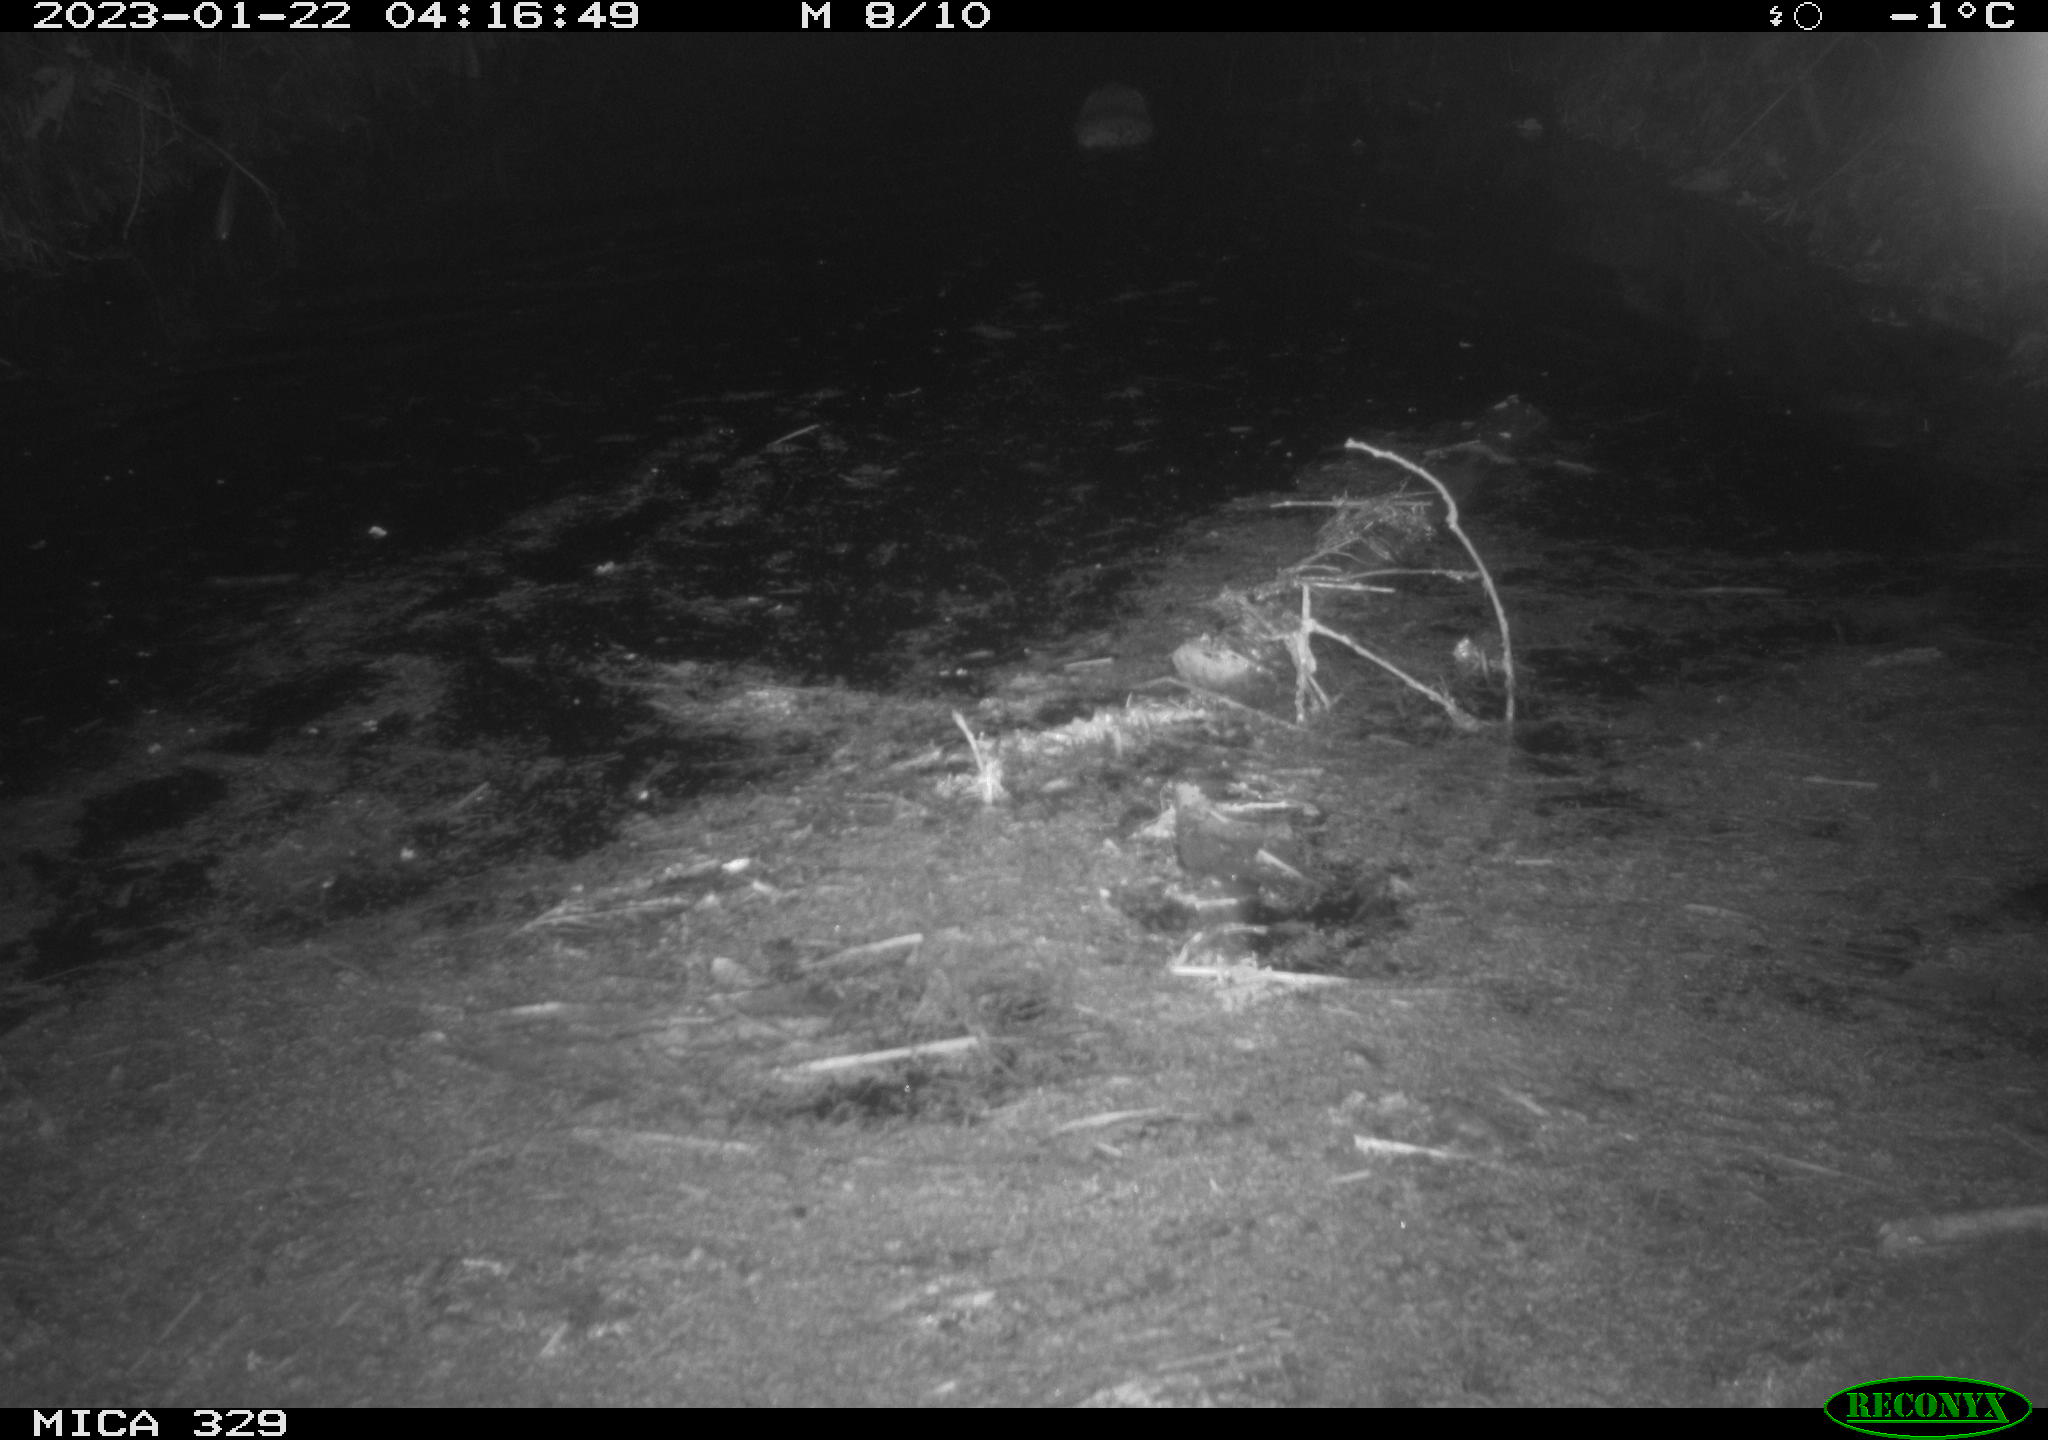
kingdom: Animalia
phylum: Chordata
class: Mammalia
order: Rodentia
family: Cricetidae
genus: Ondatra
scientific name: Ondatra zibethicus
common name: Muskrat
